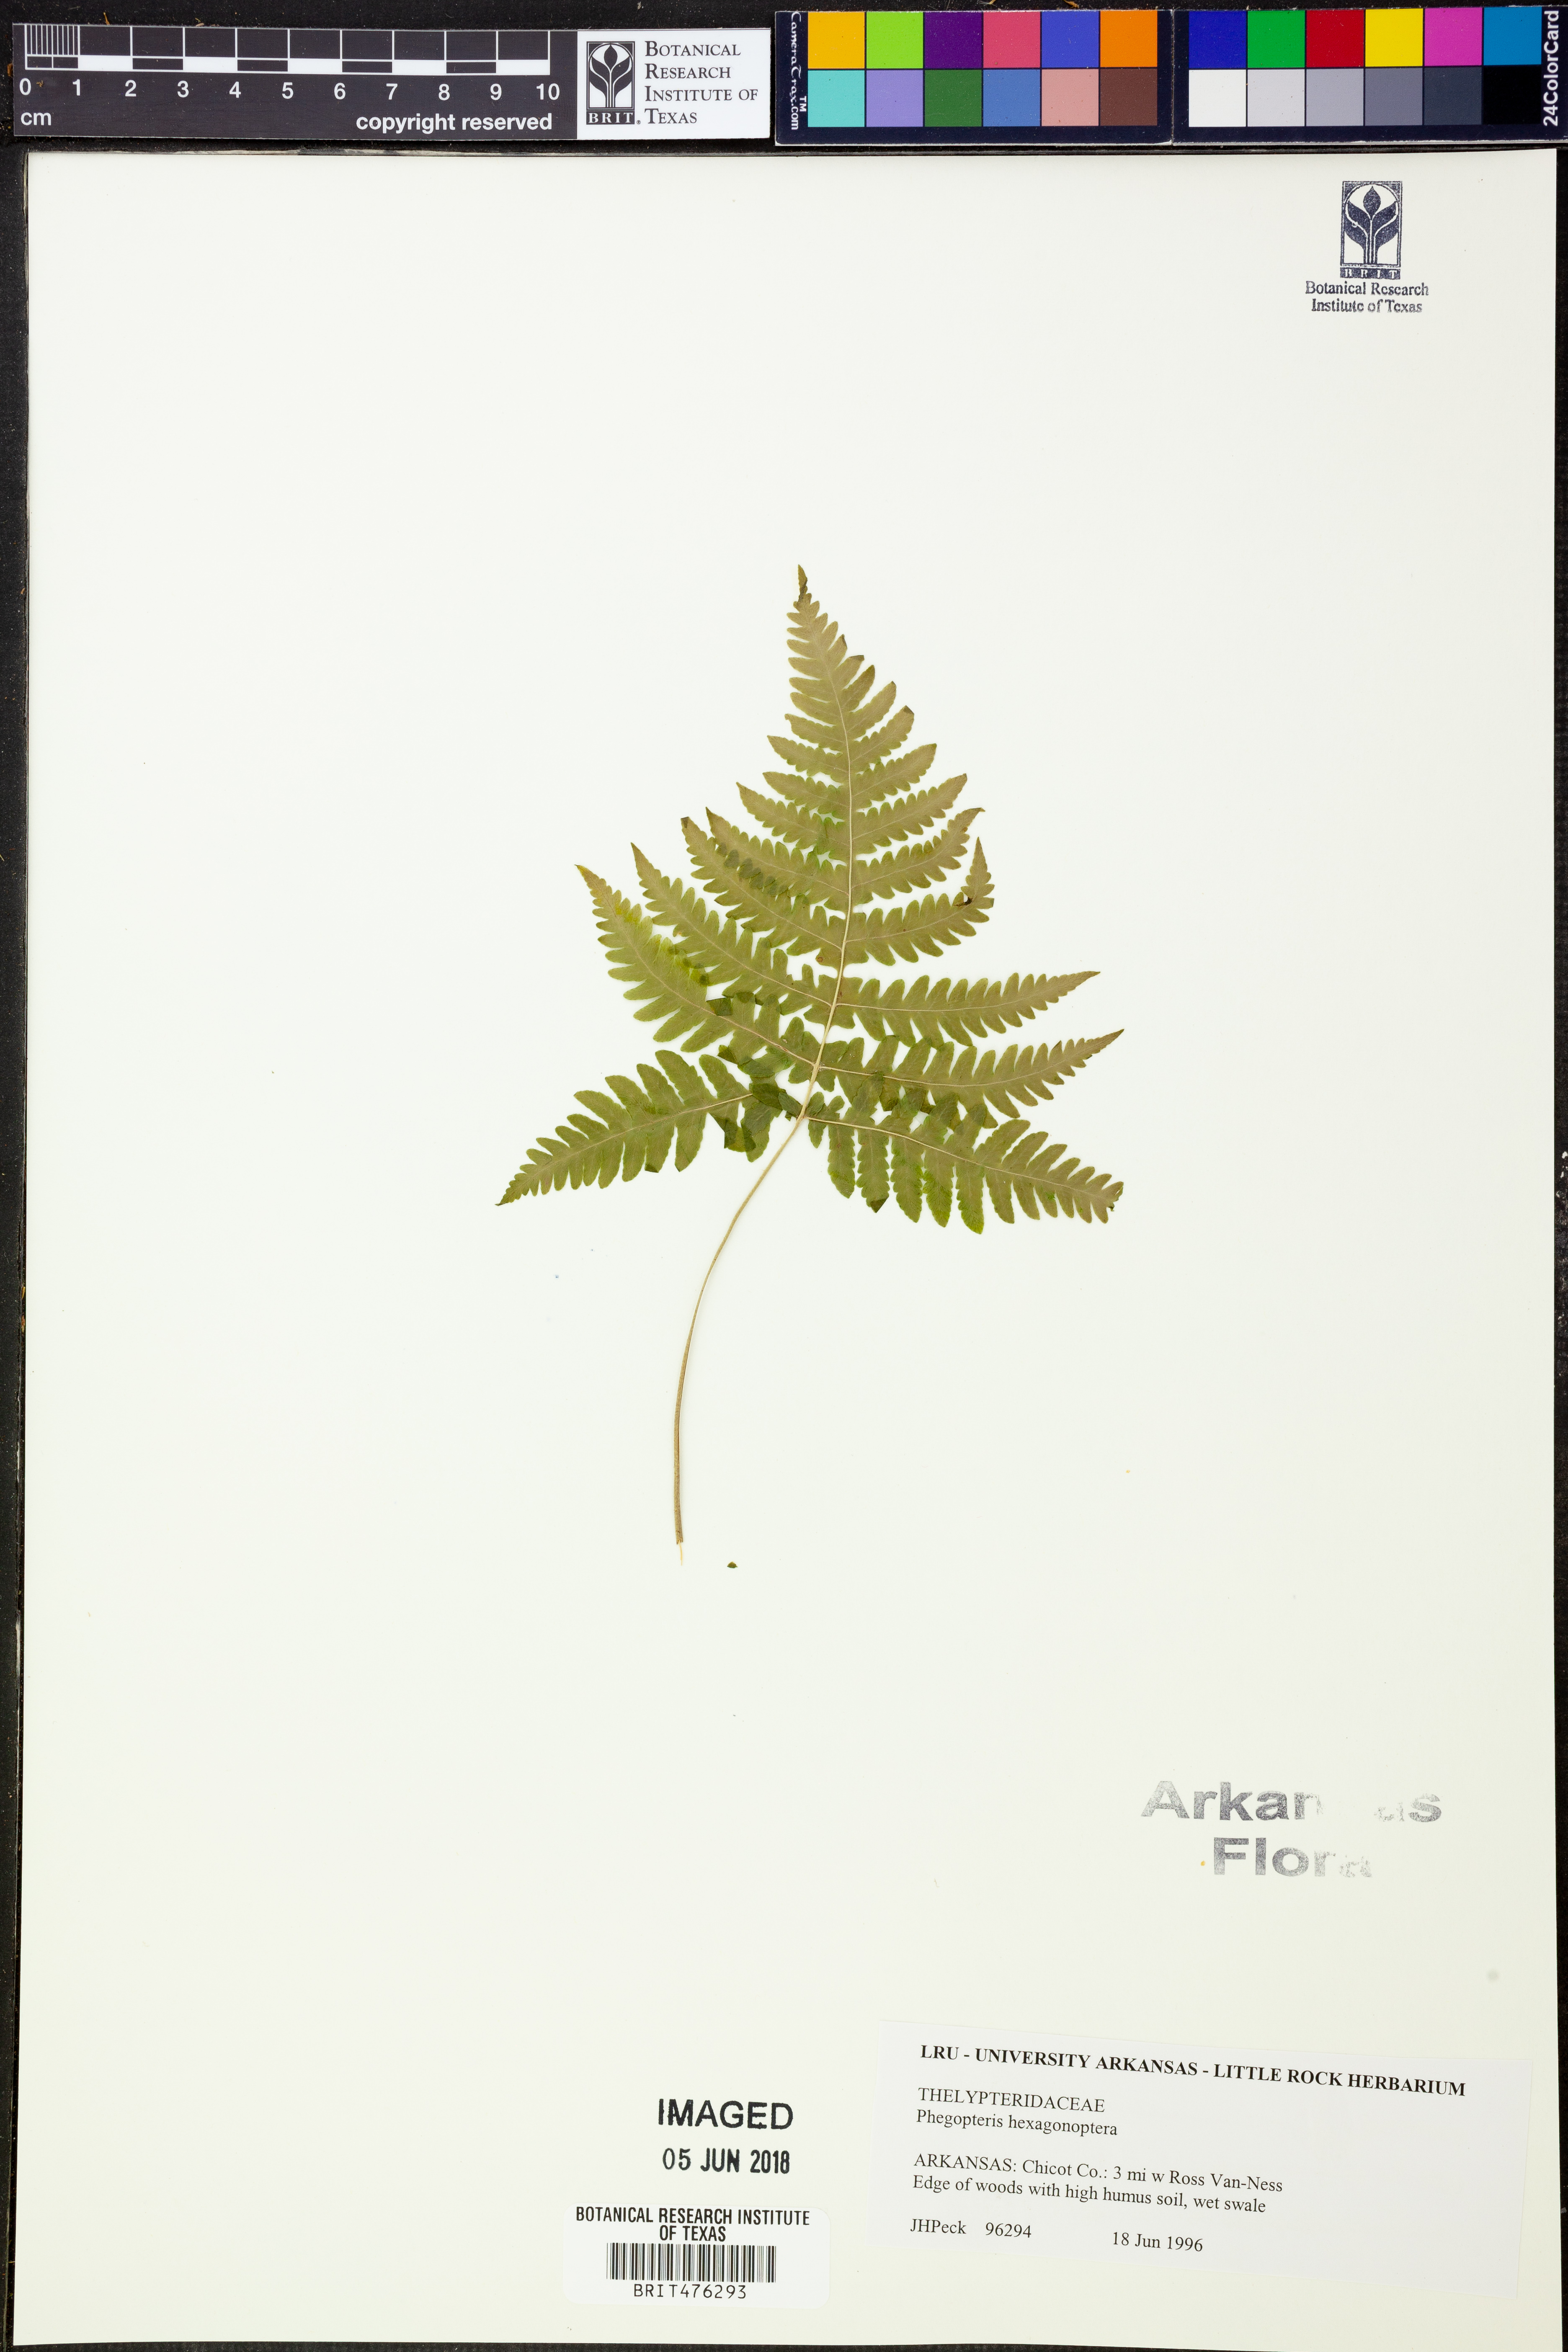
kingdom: Plantae
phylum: Tracheophyta
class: Polypodiopsida
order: Polypodiales
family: Thelypteridaceae
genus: Phegopteris
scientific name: Phegopteris hexagonoptera
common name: Broad beech fern
